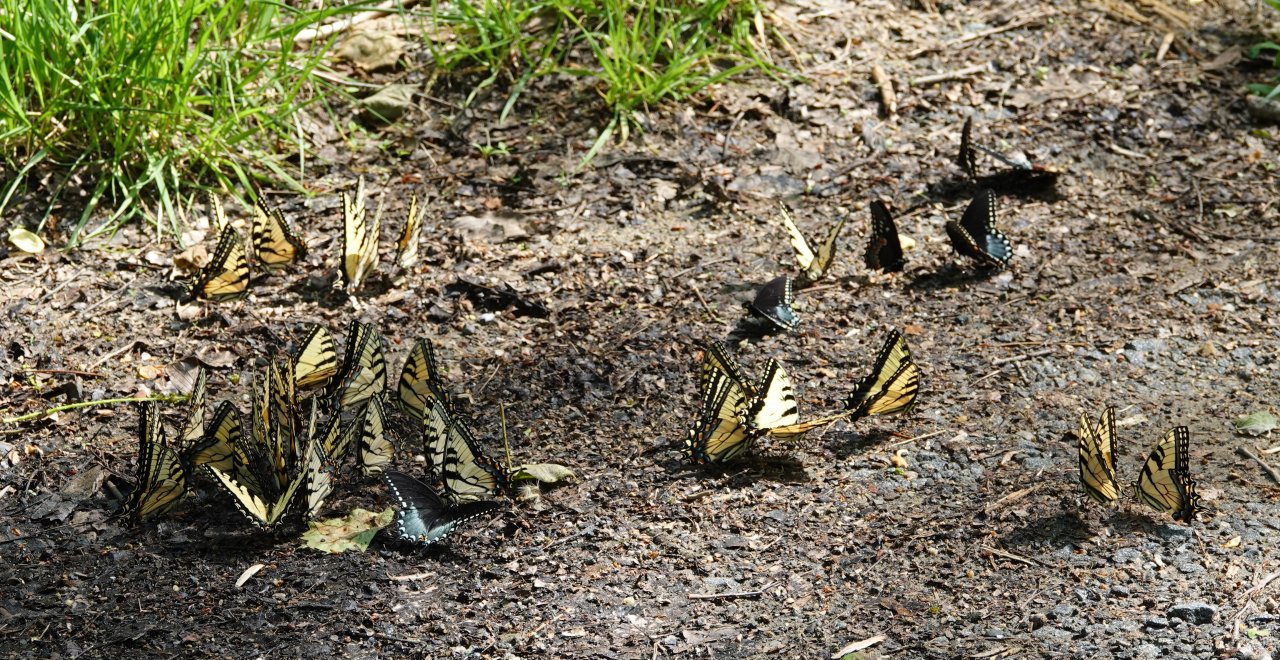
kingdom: Animalia
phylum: Arthropoda
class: Insecta
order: Lepidoptera
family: Papilionidae
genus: Pterourus
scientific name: Pterourus glaucus
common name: Eastern Tiger Swallowtail
